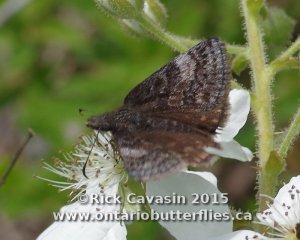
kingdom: Animalia
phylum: Arthropoda
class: Insecta
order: Lepidoptera
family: Hesperiidae
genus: Erynnis
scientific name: Erynnis icelus
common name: Dreamy Duskywing
